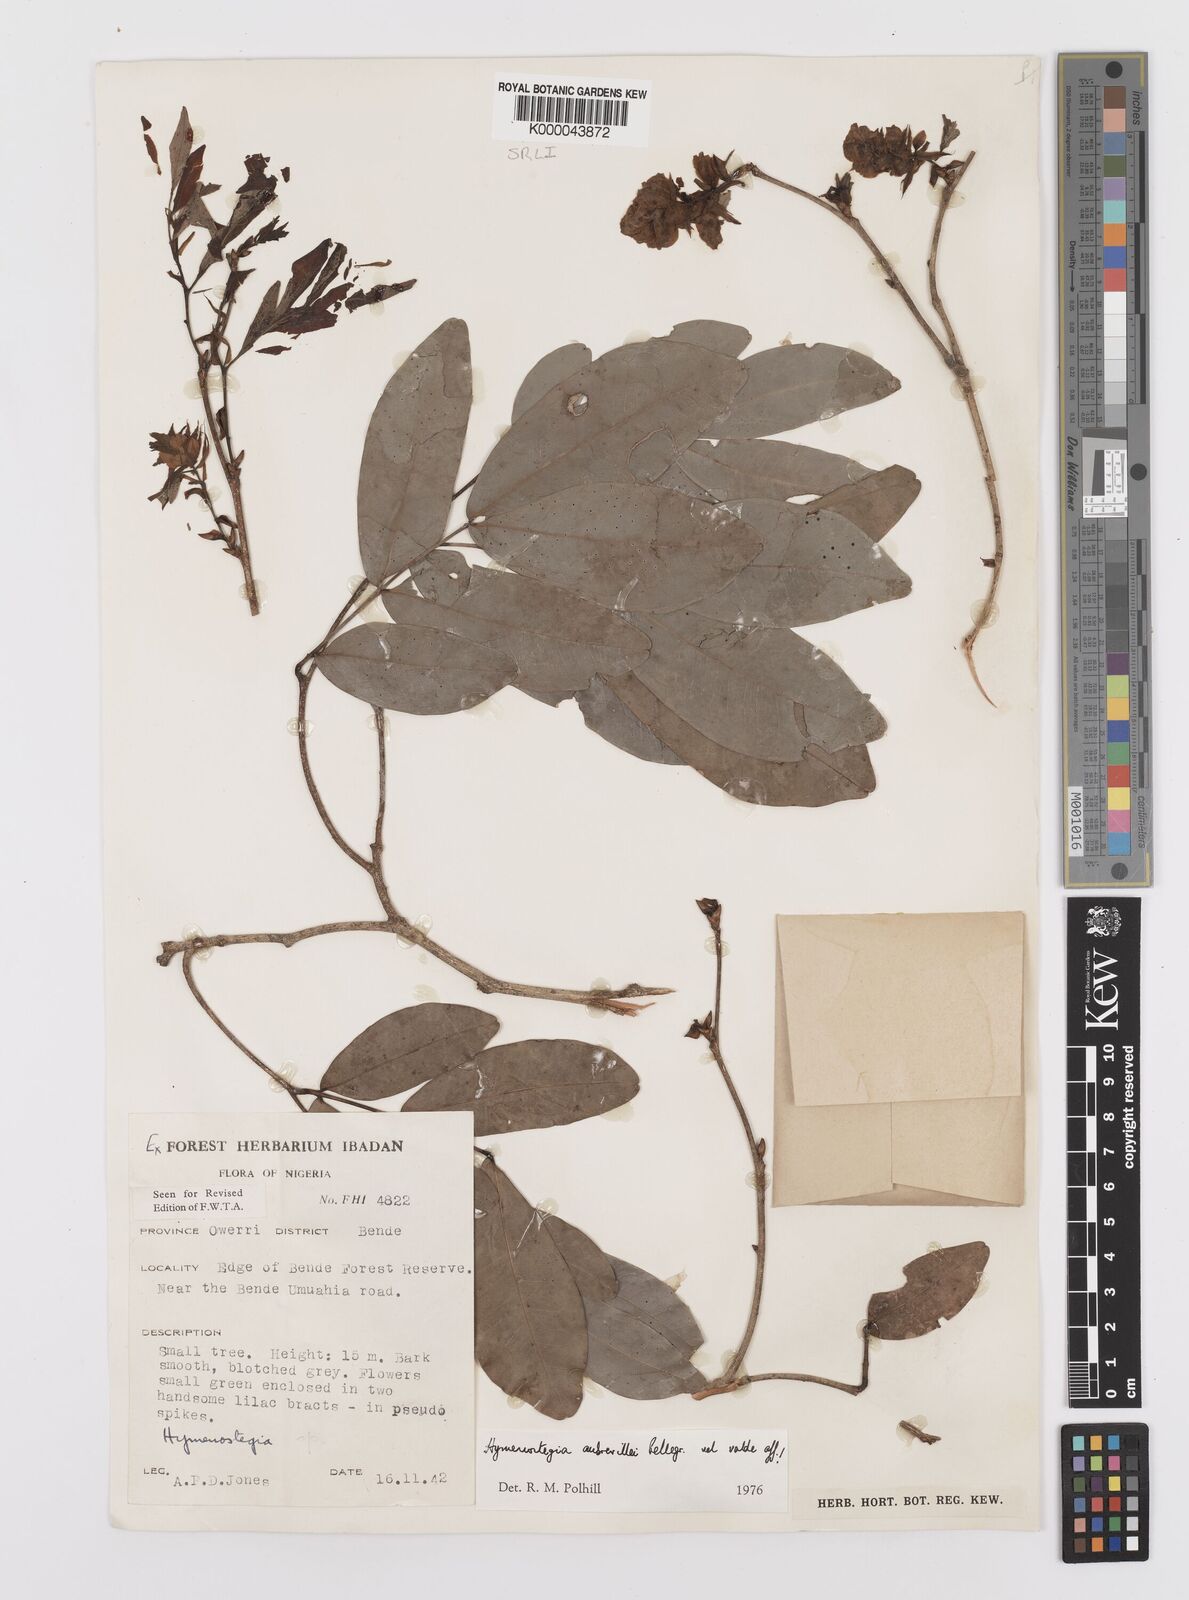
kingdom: Plantae
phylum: Tracheophyta
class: Magnoliopsida
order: Fabales
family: Fabaceae
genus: Hymenostegia
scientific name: Hymenostegia aubrevillei
